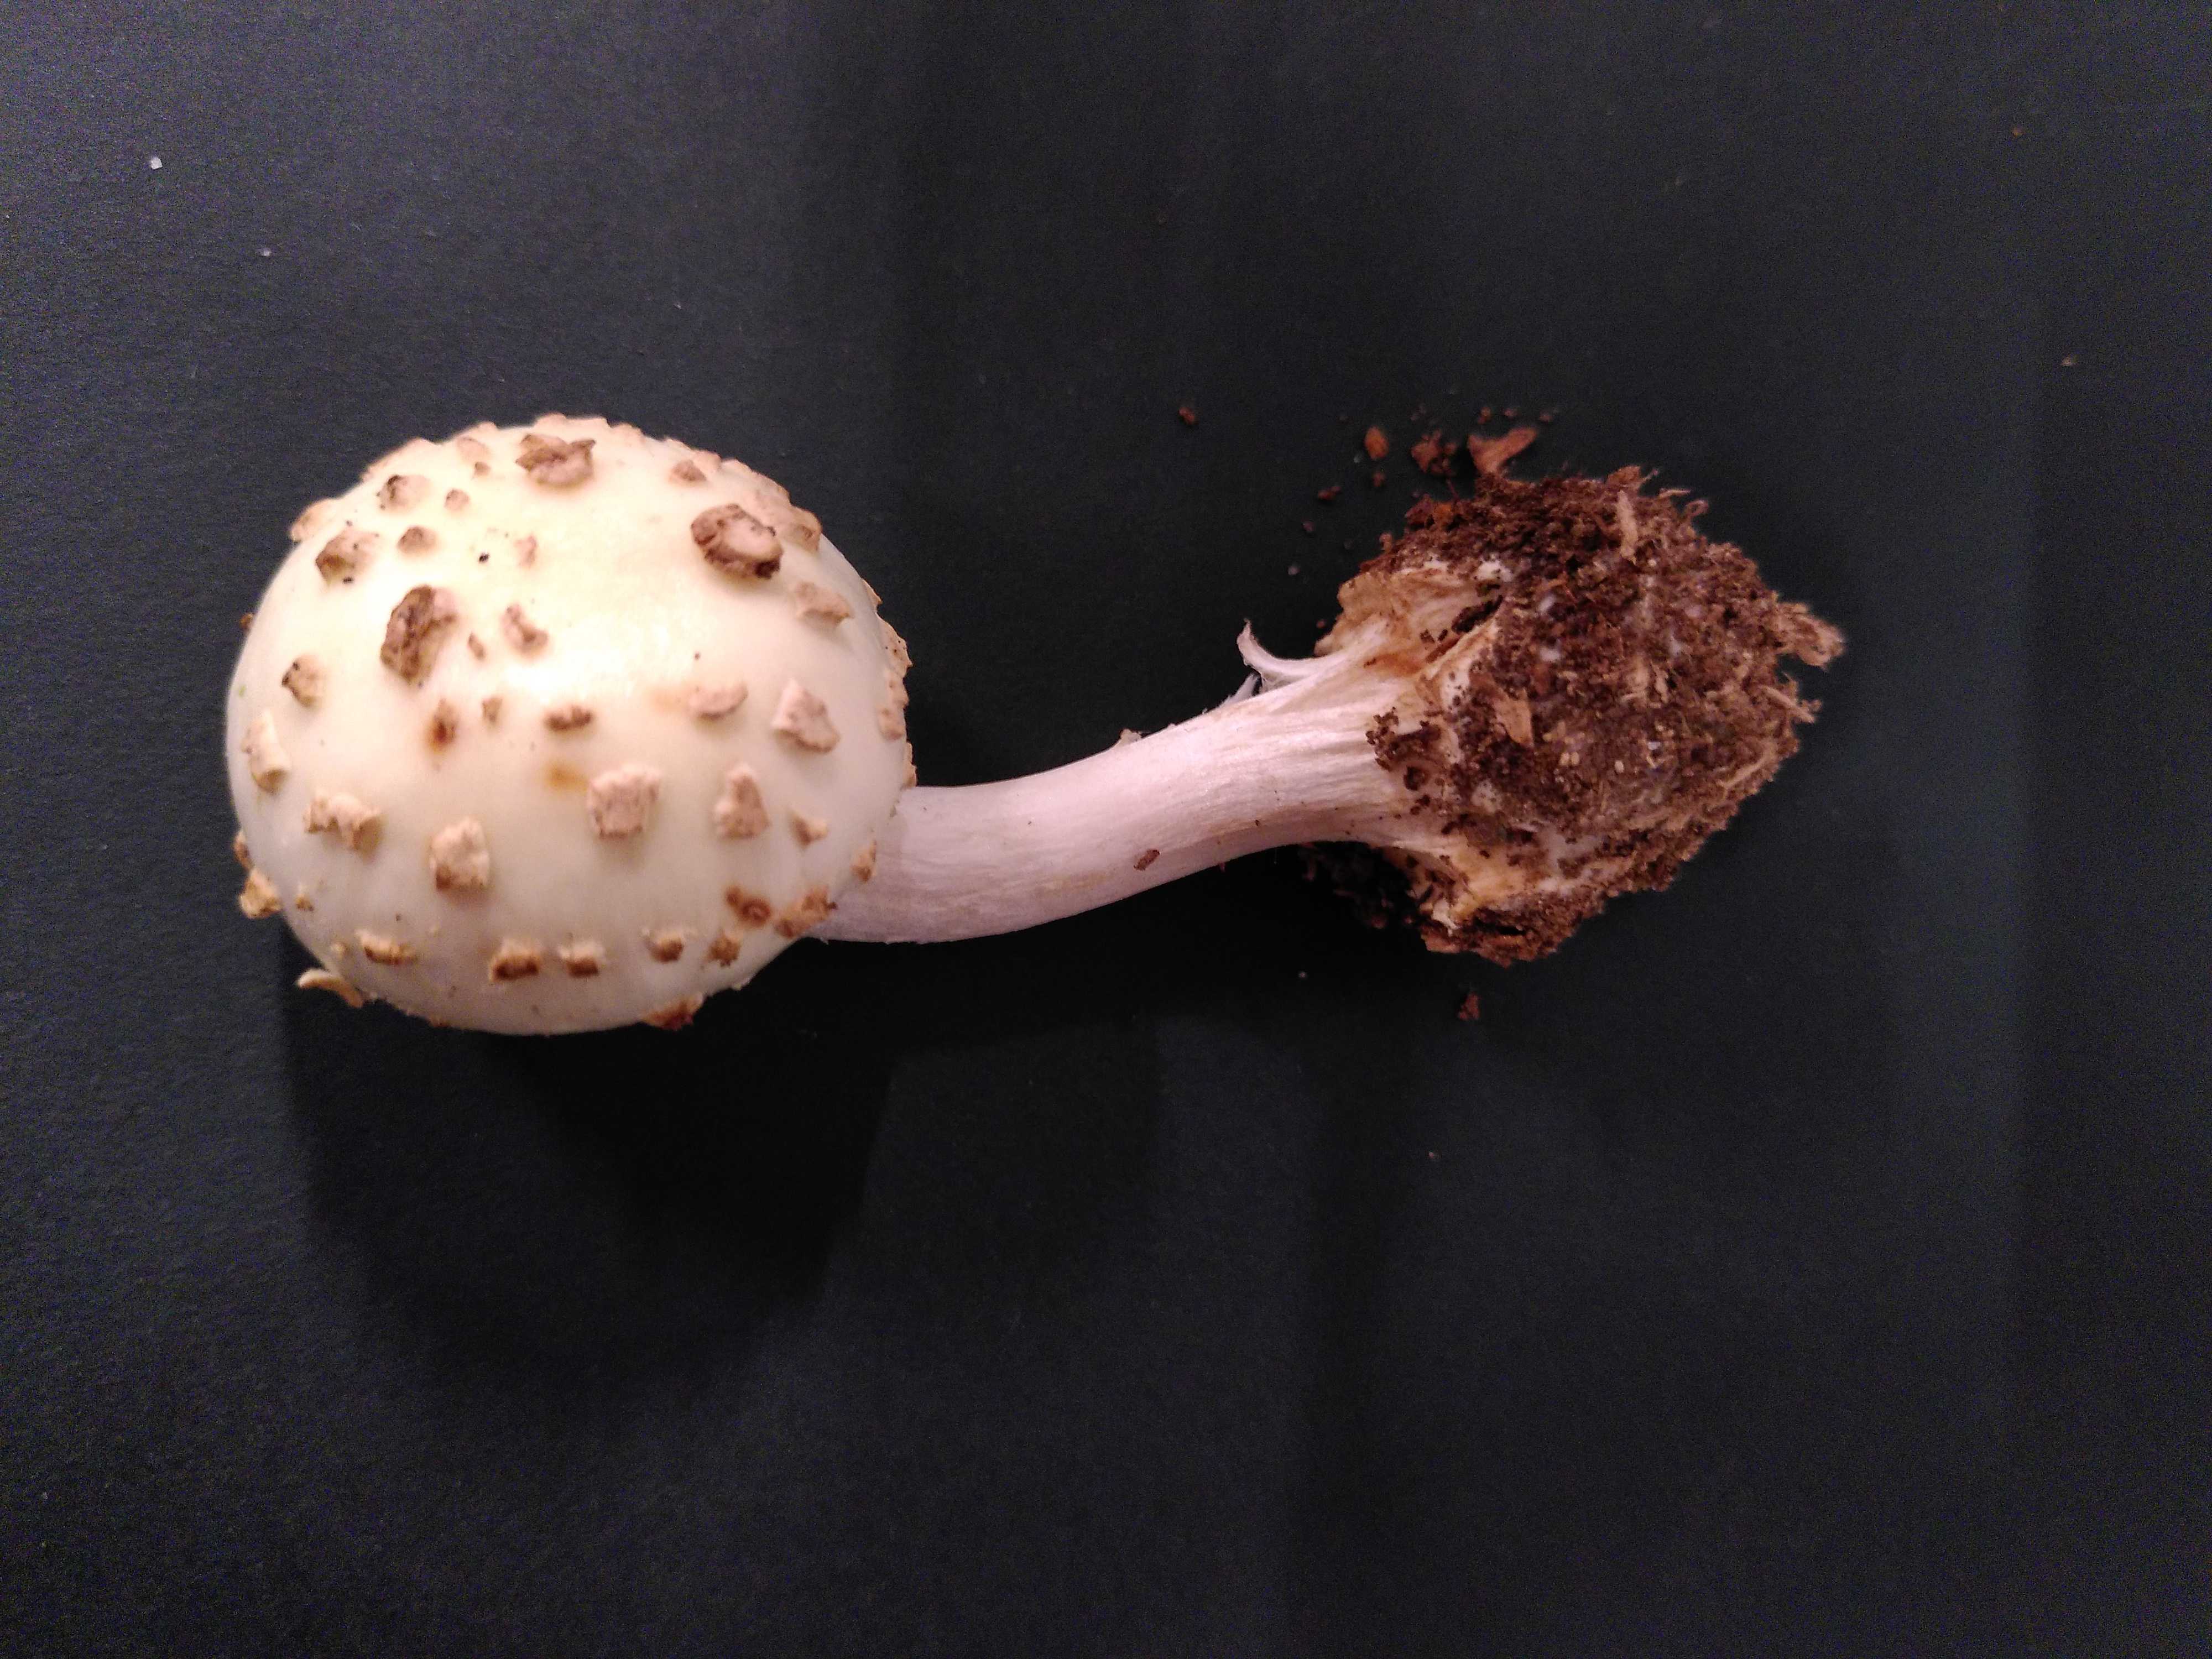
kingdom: Fungi
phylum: Basidiomycota
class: Agaricomycetes
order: Agaricales
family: Amanitaceae
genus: Amanita
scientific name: Amanita citrina
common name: kugleknoldet fluesvamp
